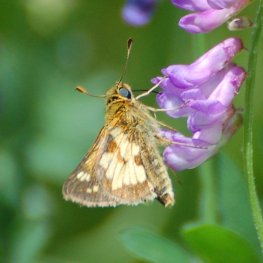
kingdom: Animalia
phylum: Arthropoda
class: Insecta
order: Lepidoptera
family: Hesperiidae
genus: Polites
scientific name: Polites coras
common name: Peck's Skipper
